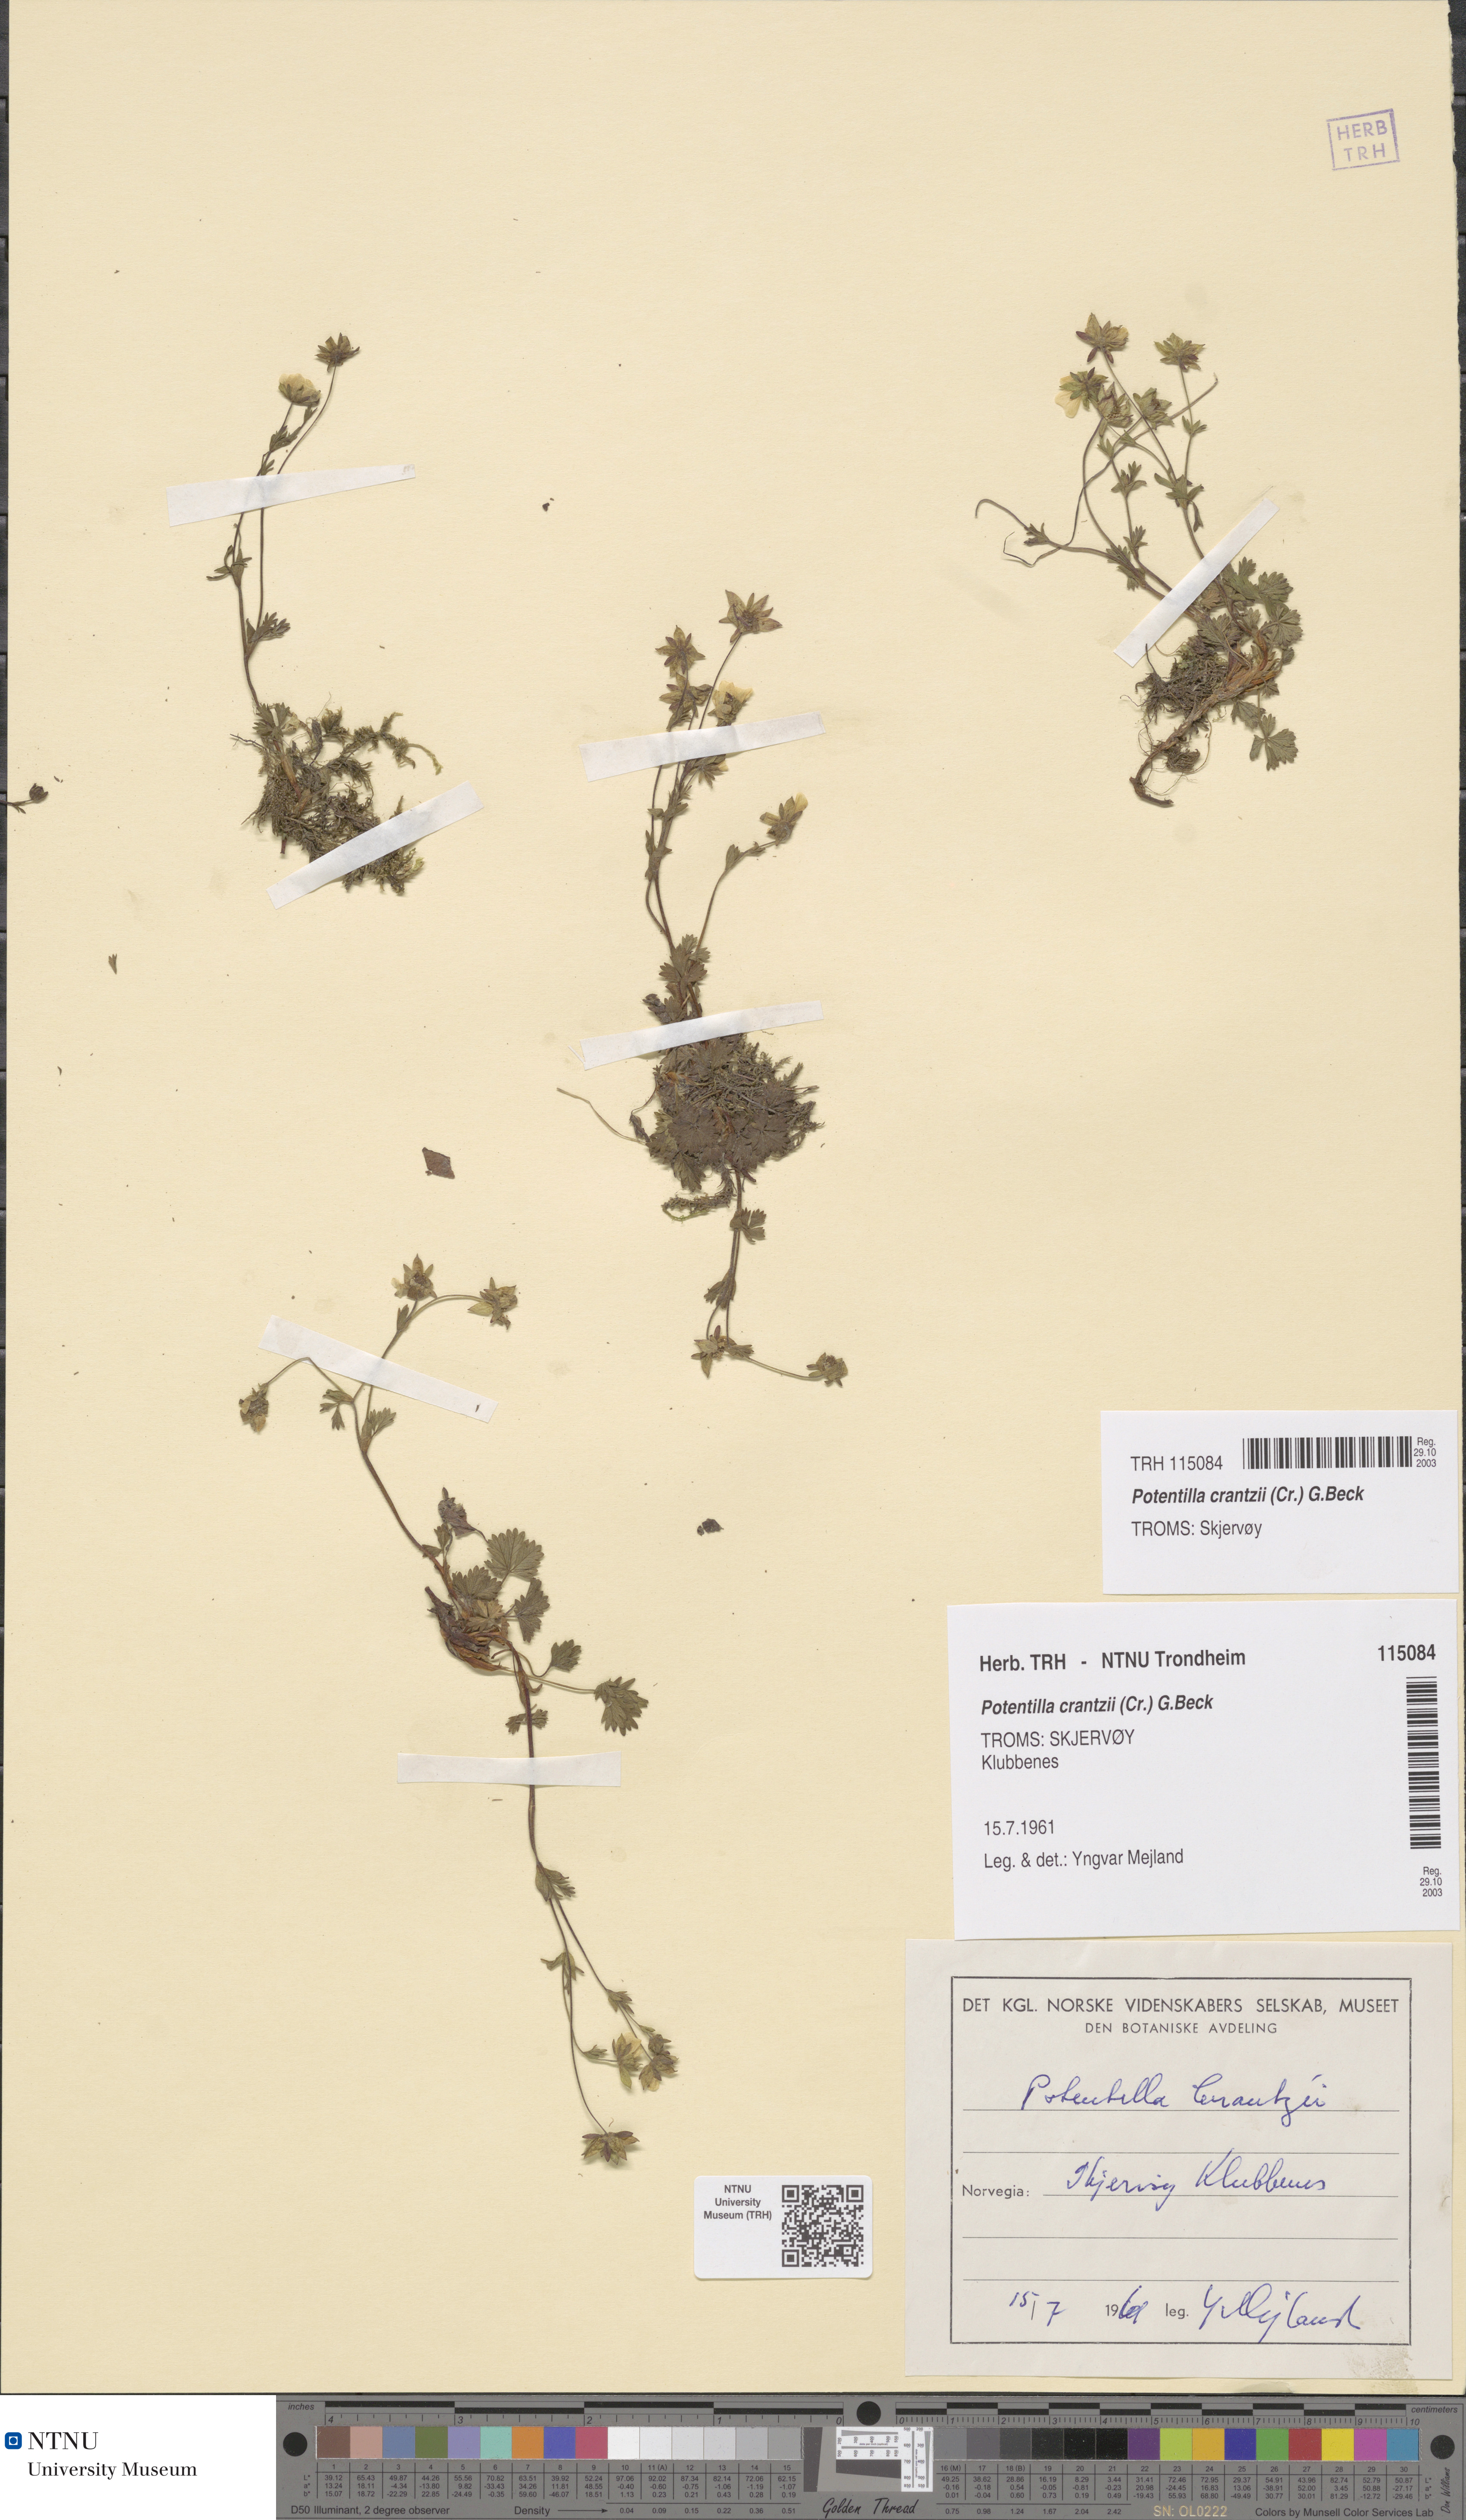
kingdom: Plantae
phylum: Tracheophyta
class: Magnoliopsida
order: Rosales
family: Rosaceae
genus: Potentilla
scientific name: Potentilla crantzii
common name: Alpine cinquefoil
